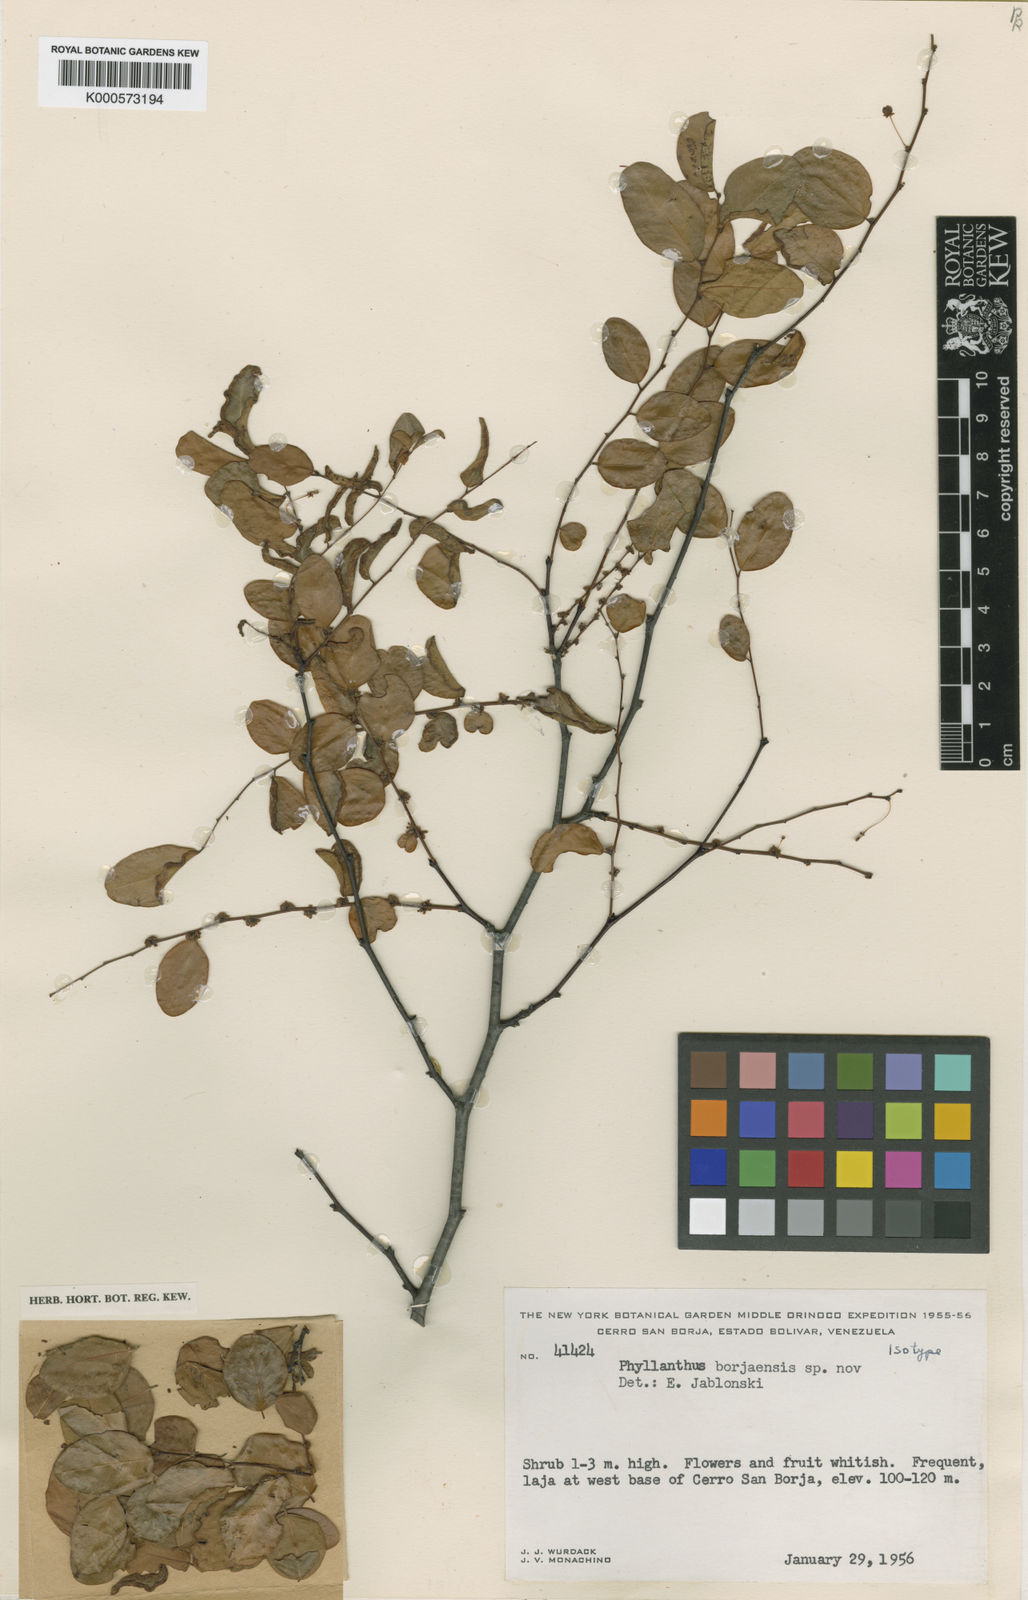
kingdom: Plantae
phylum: Tracheophyta
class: Magnoliopsida
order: Malpighiales
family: Phyllanthaceae
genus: Phyllanthus
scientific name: Phyllanthus borjaensis
